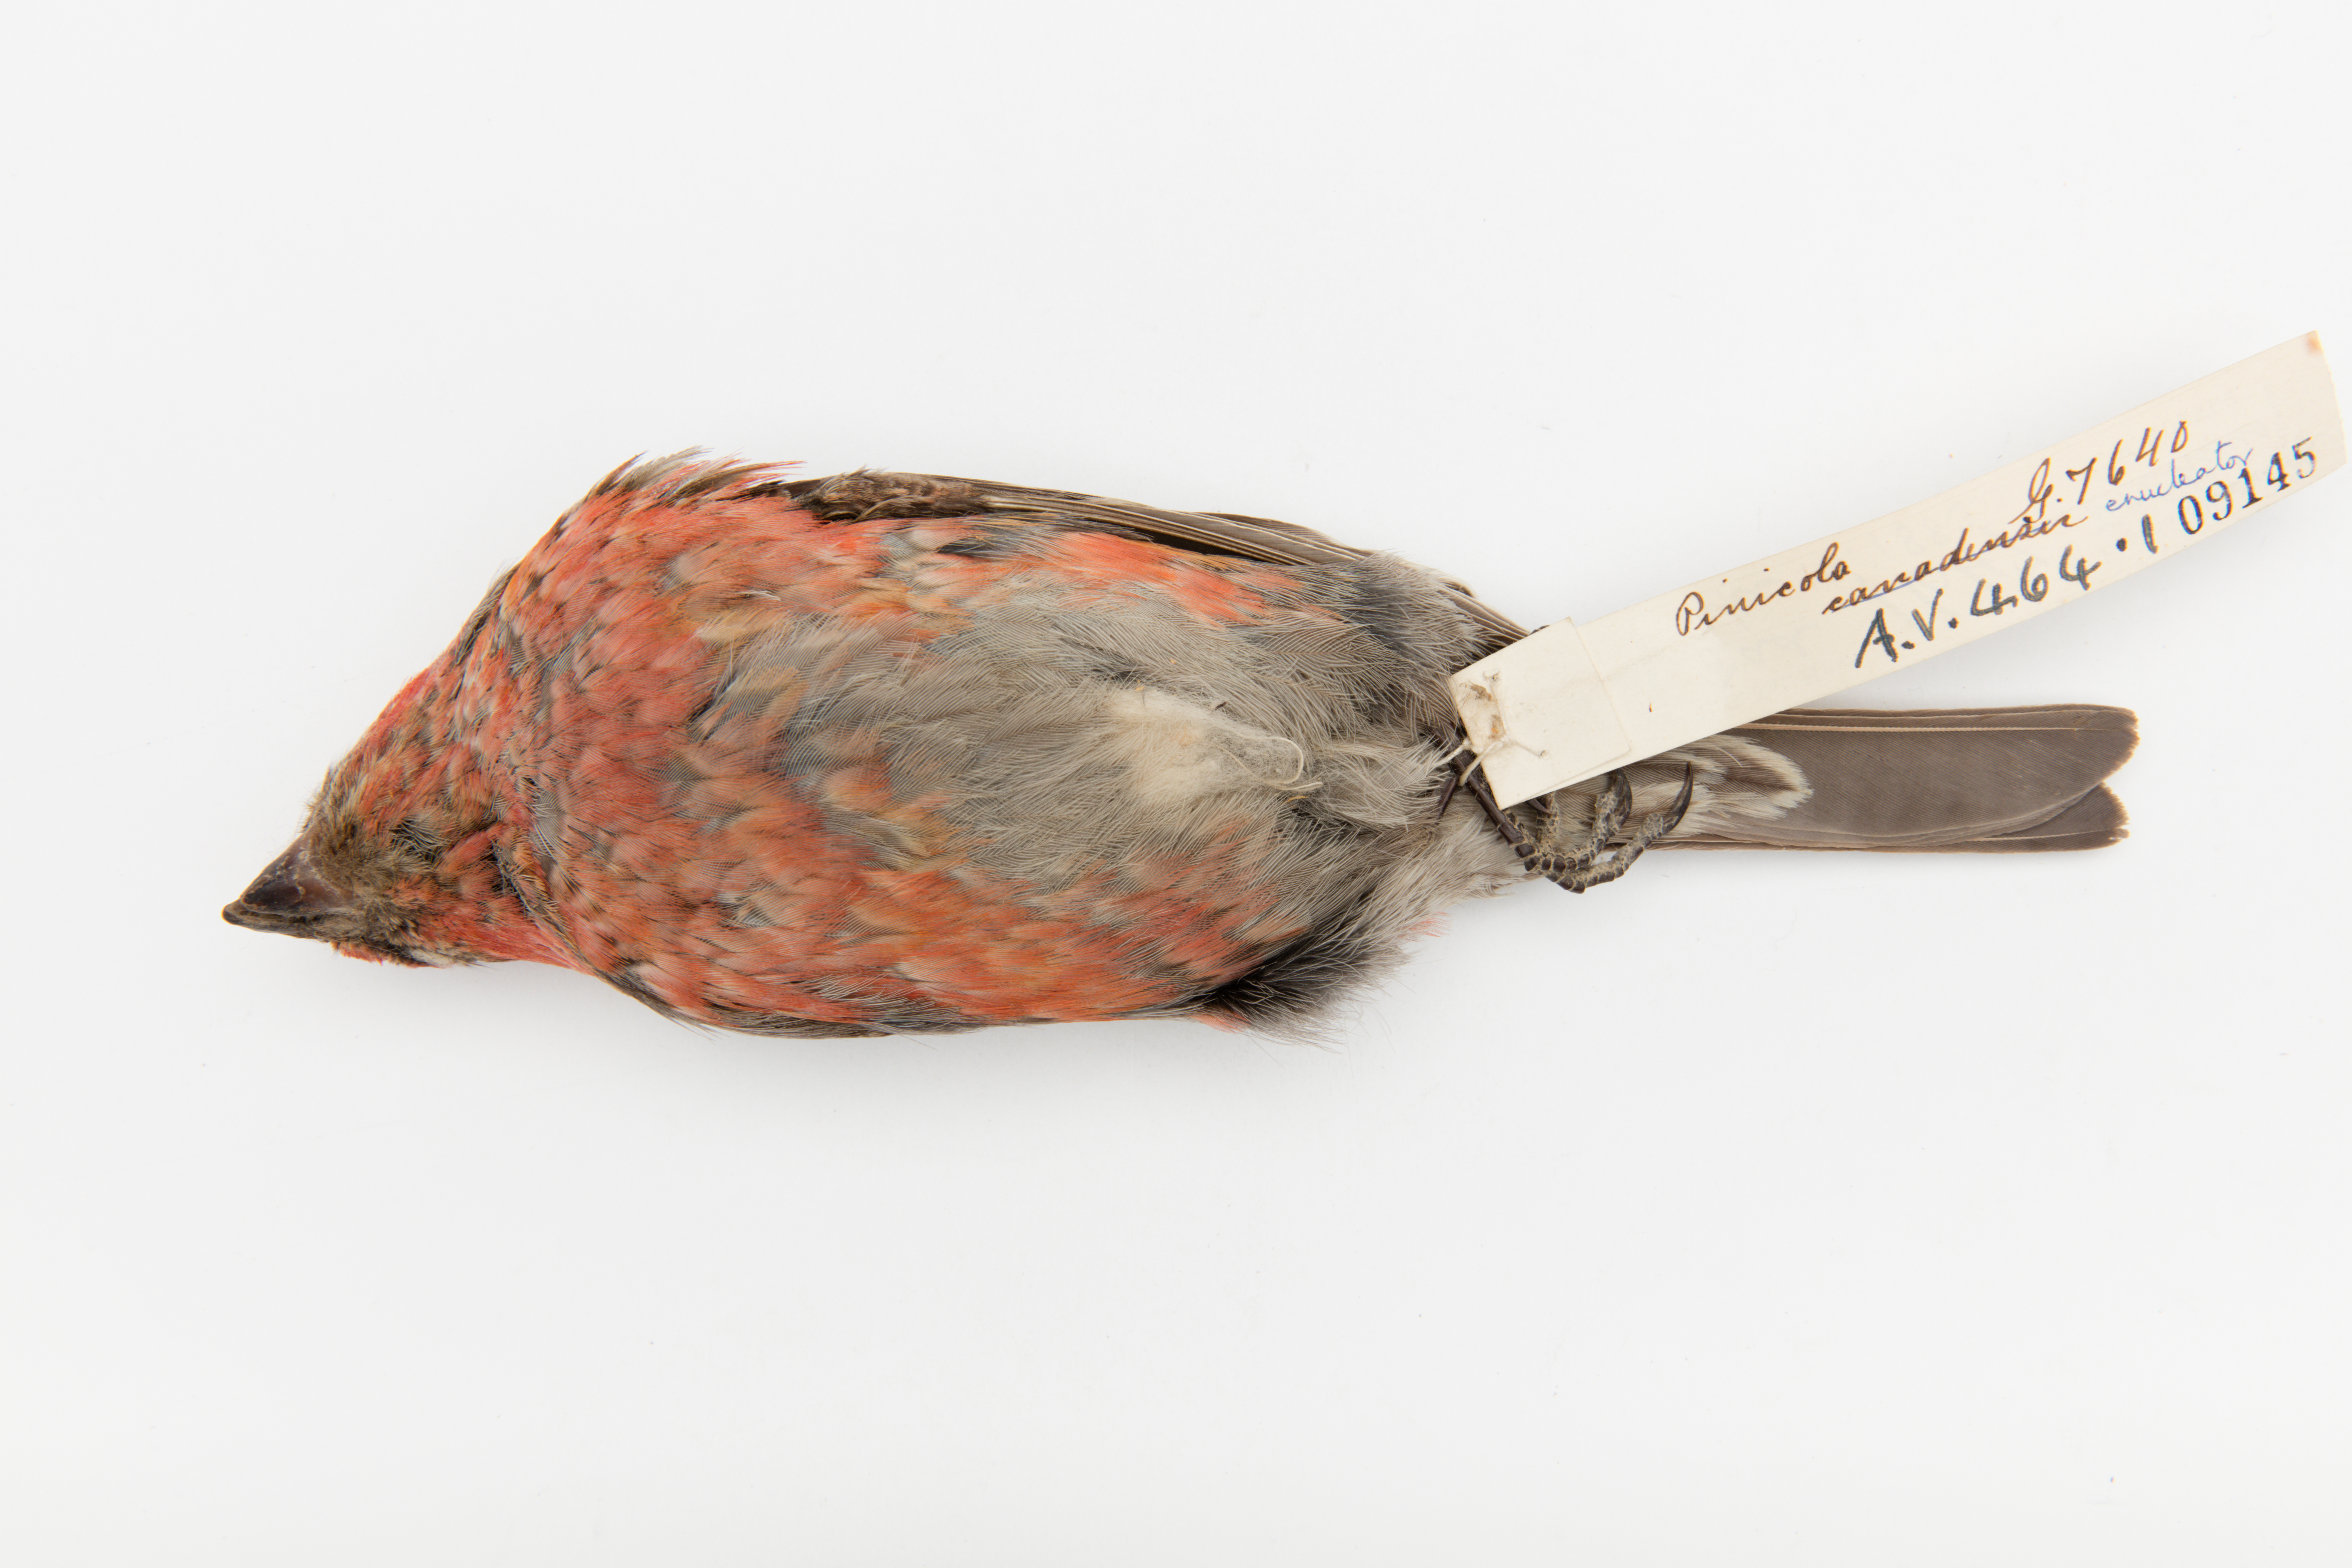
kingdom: Animalia
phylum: Chordata
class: Aves
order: Passeriformes
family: Fringillidae
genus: Pinicola
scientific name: Pinicola enucleator
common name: Pine grosbeak
